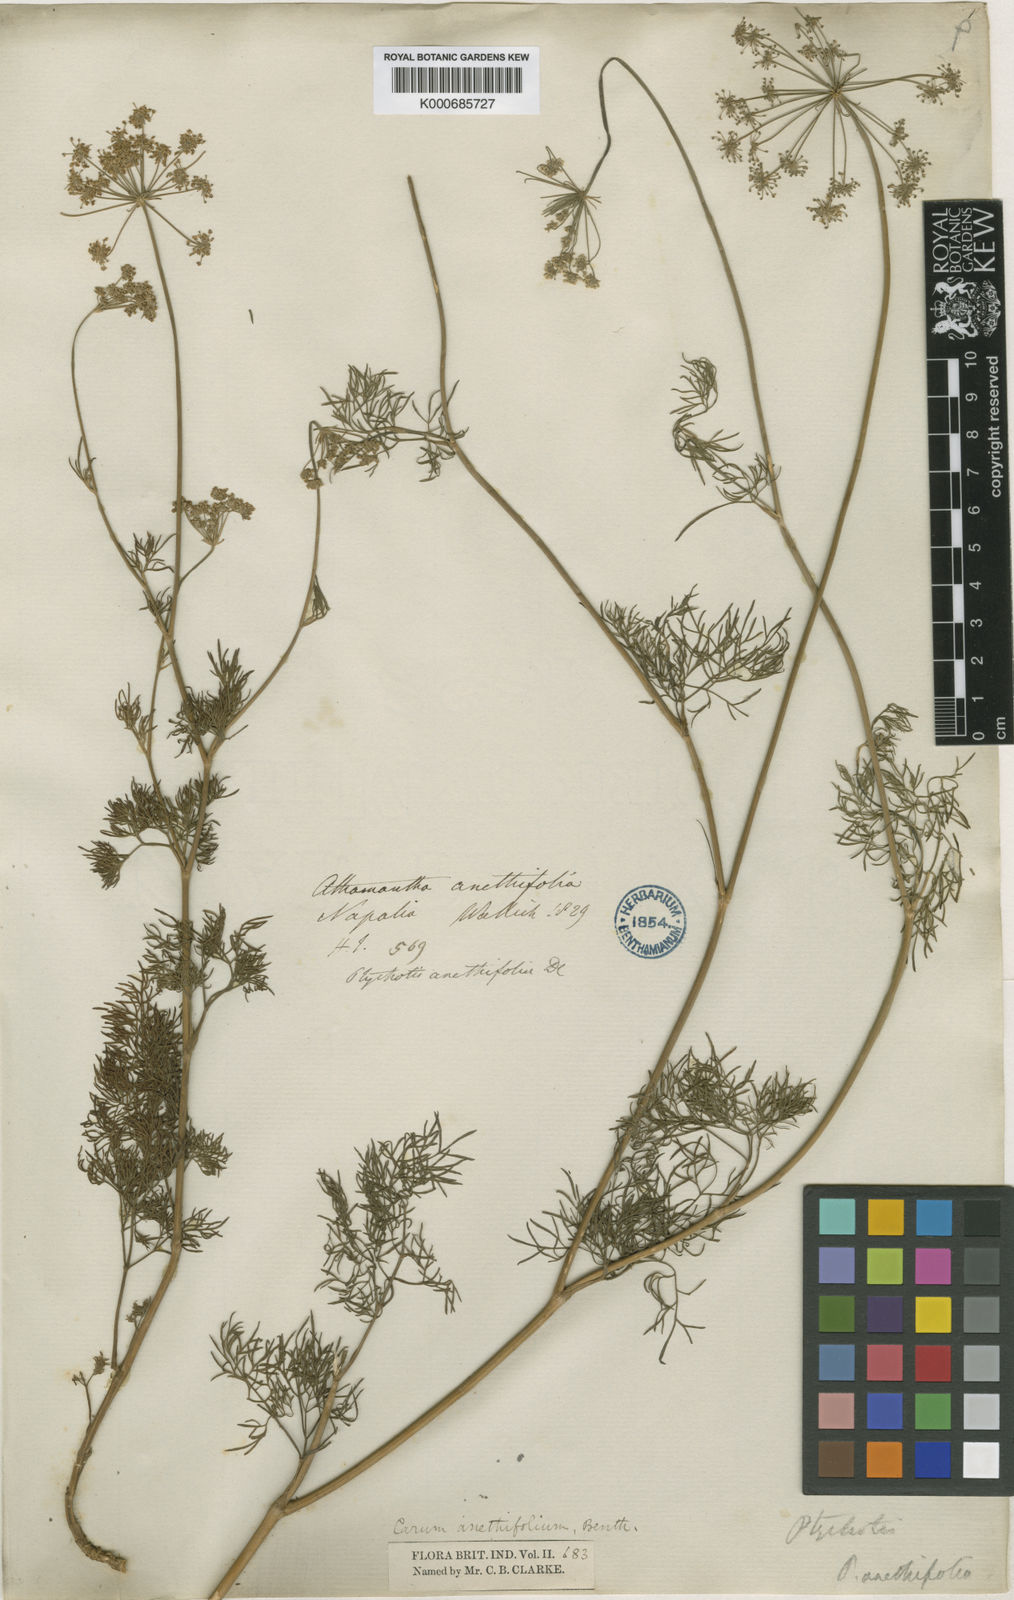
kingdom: Plantae
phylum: Tracheophyta
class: Magnoliopsida
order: Apiales
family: Apiaceae
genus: Psammogeton
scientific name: Psammogeton anethifolium
